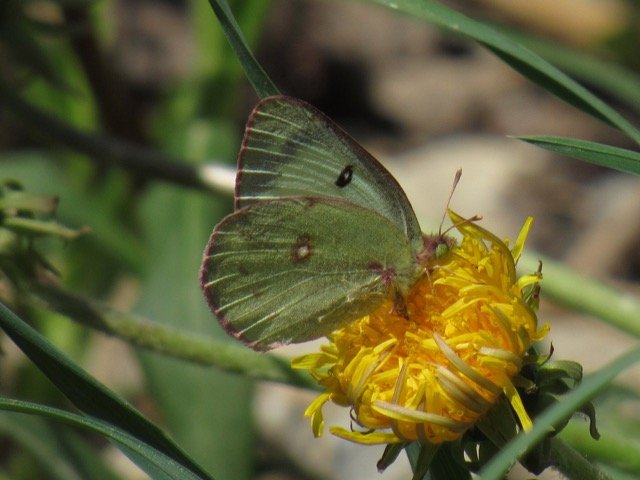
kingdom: Animalia
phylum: Arthropoda
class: Insecta
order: Lepidoptera
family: Pieridae
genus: Colias
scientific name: Colias eurytheme
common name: Orange Sulphur
